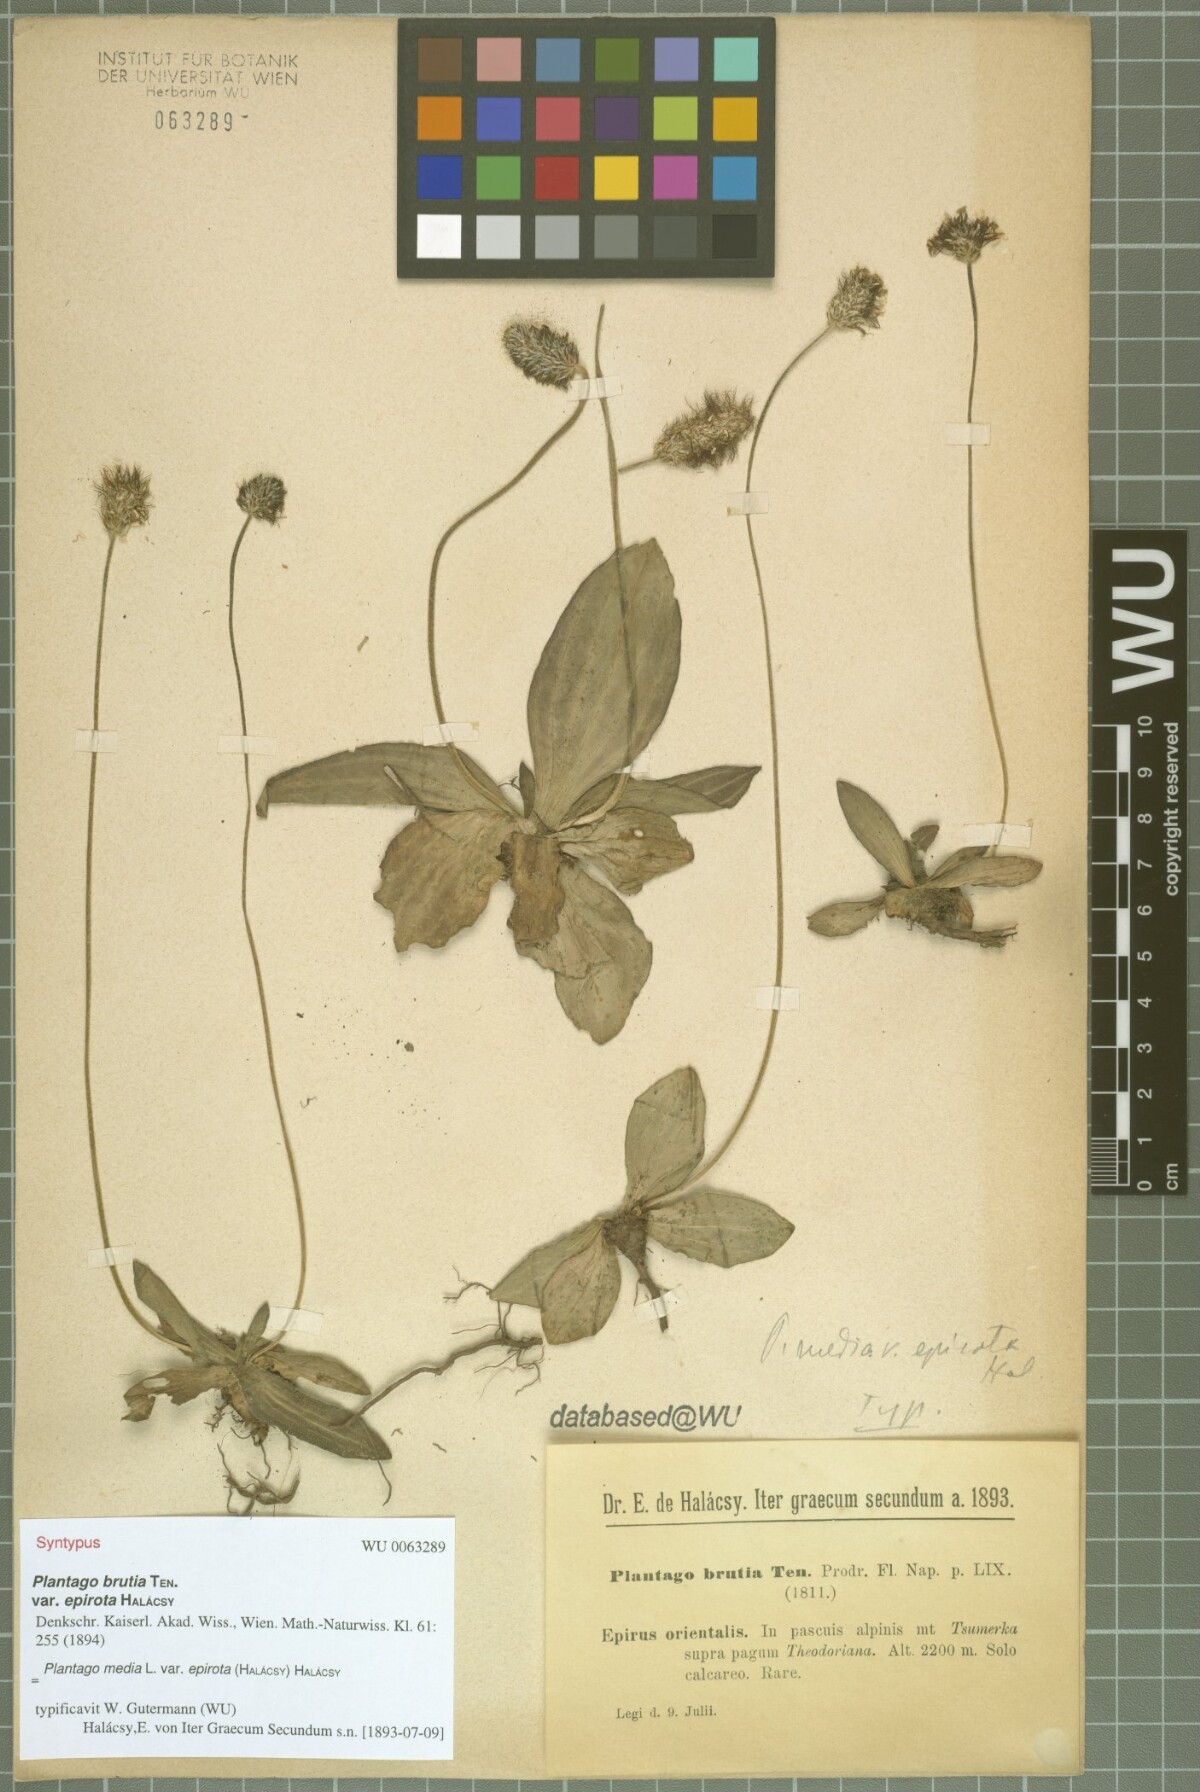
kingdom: Plantae
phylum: Tracheophyta
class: Magnoliopsida
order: Lamiales
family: Plantaginaceae
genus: Plantago
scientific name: Plantago media
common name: Hoary plantain
